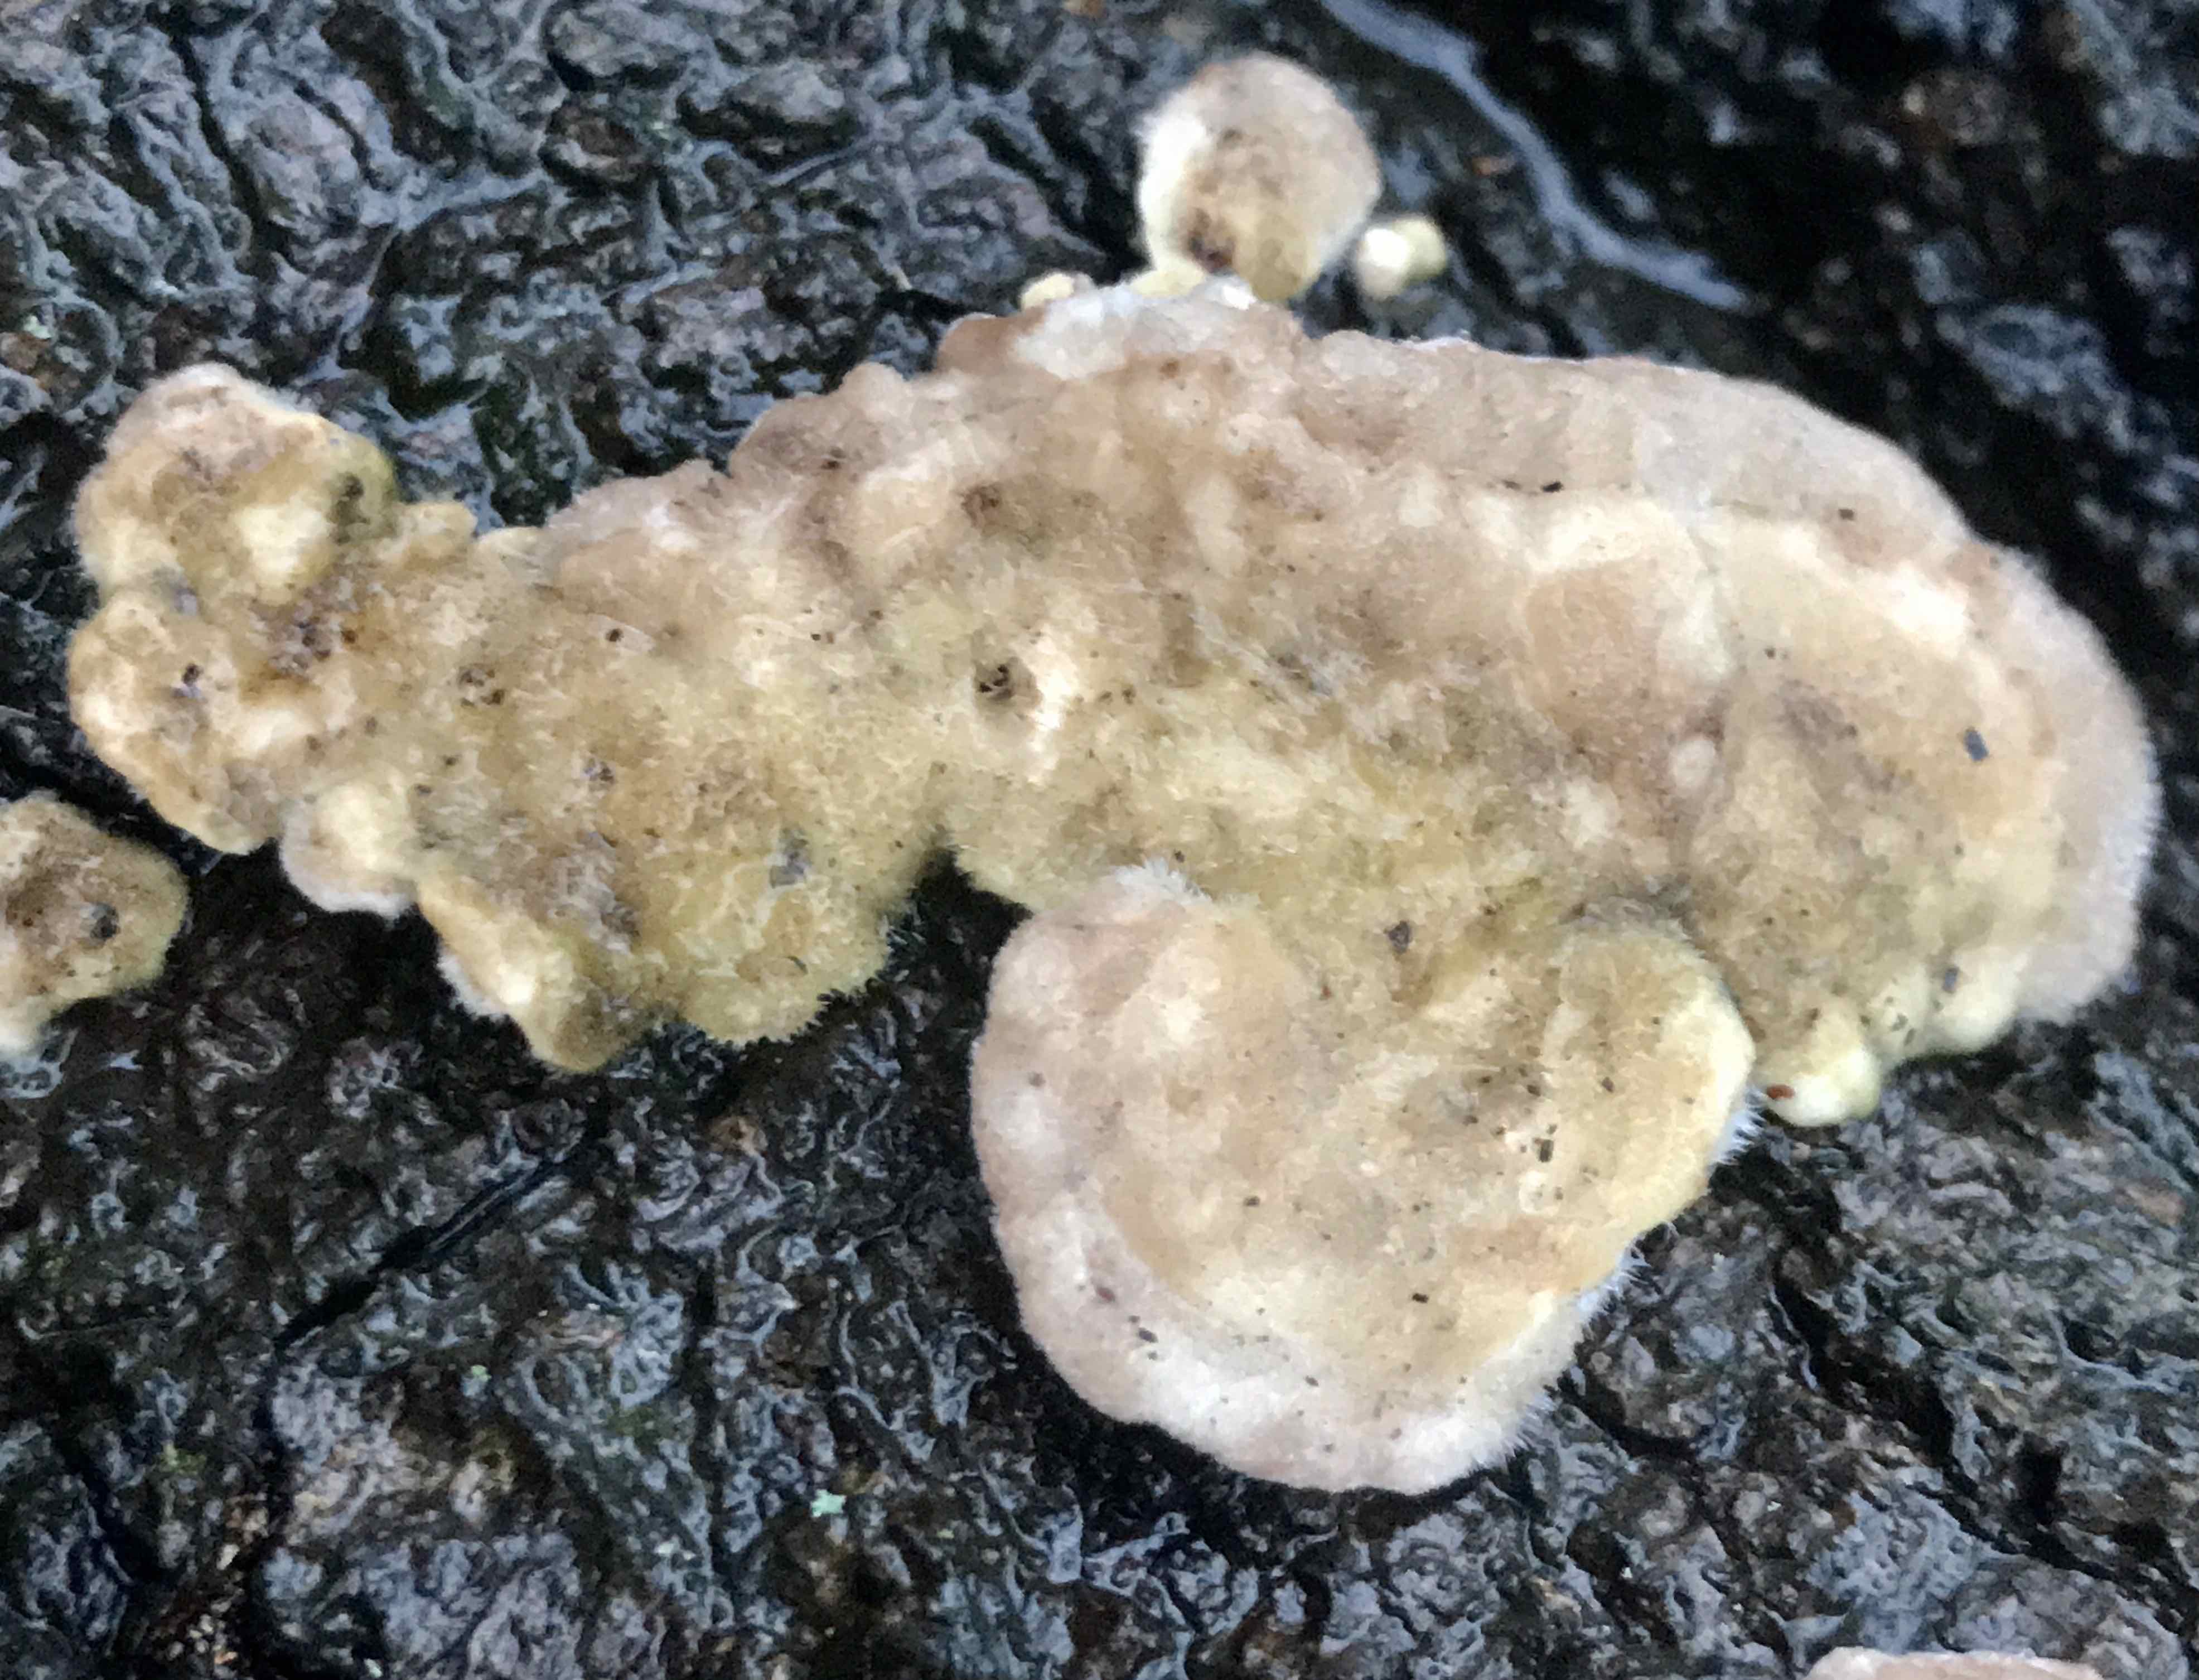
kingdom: Fungi
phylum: Basidiomycota
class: Agaricomycetes
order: Polyporales
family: Polyporaceae
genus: Trametes
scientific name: Trametes hirsuta
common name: håret læderporesvamp
